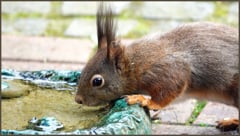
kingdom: Animalia
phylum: Chordata
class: Mammalia
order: Rodentia
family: Sciuridae
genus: Sciurus
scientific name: Sciurus vulgaris
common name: Eurasian red squirrel
